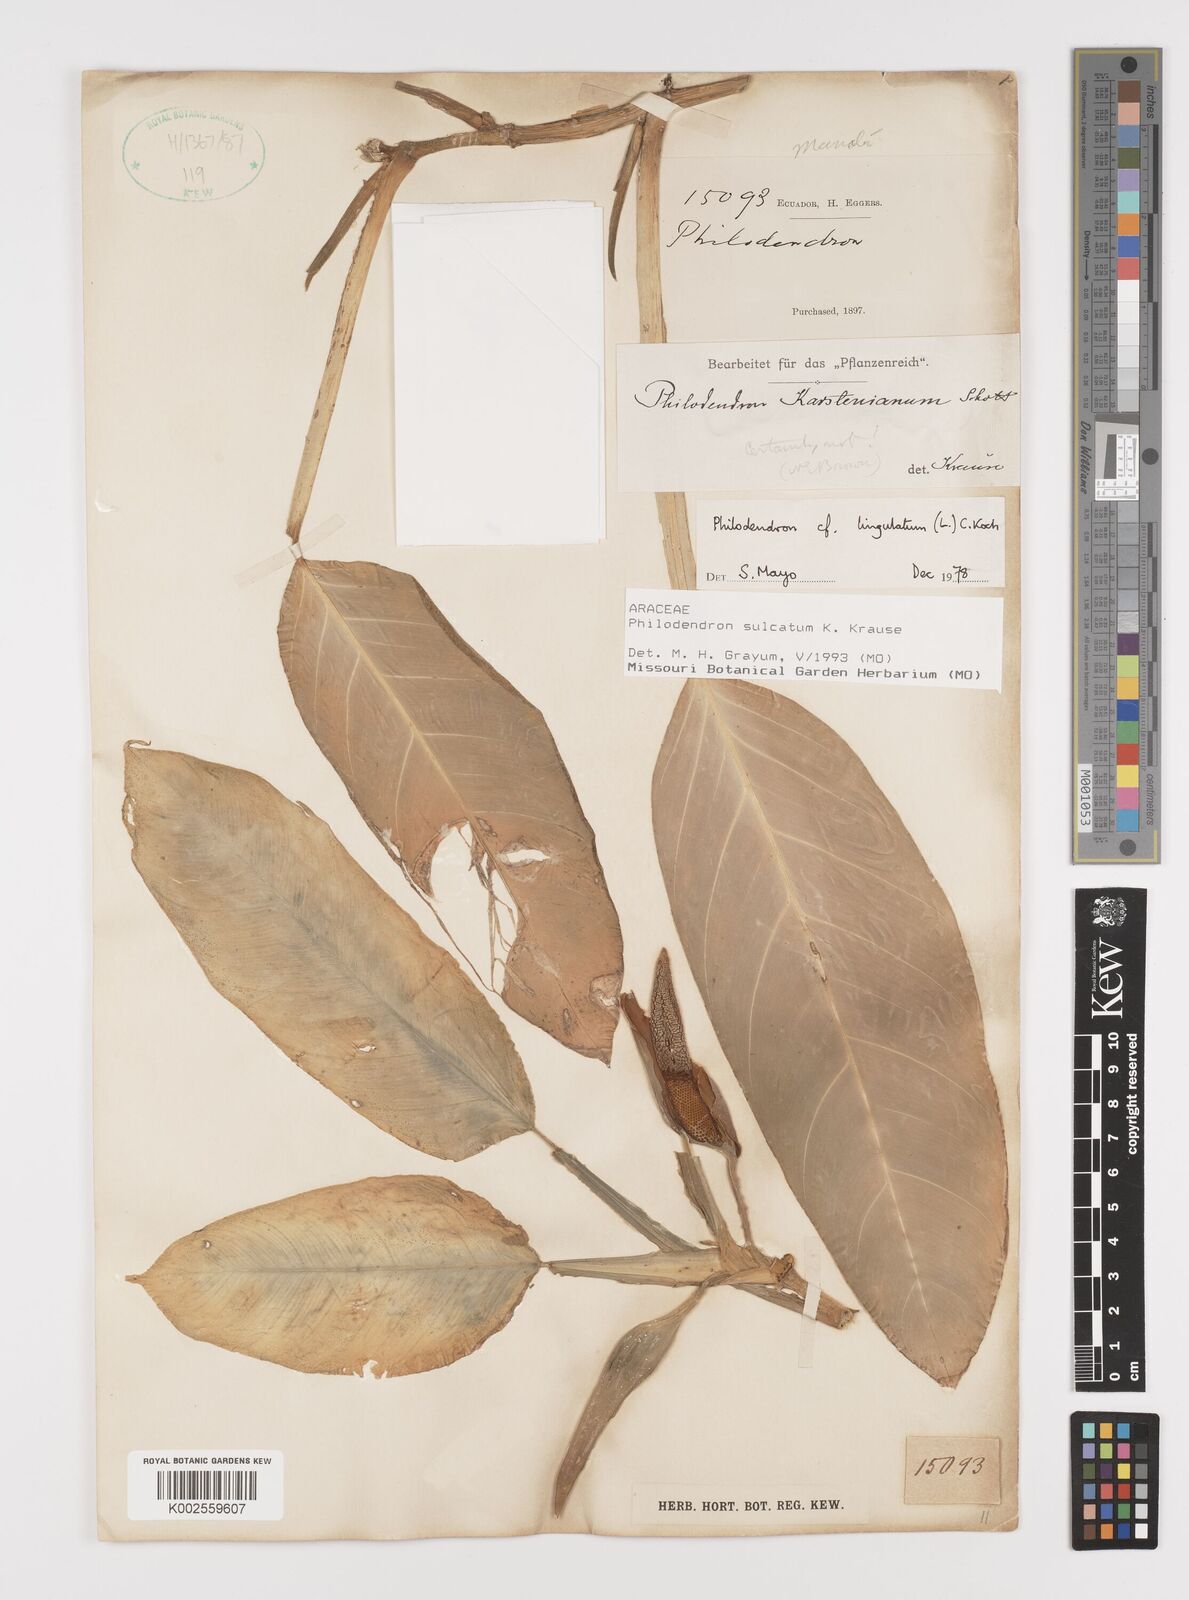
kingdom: Plantae
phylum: Tracheophyta
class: Liliopsida
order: Alismatales
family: Araceae
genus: Philodendron
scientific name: Philodendron sulcatum
